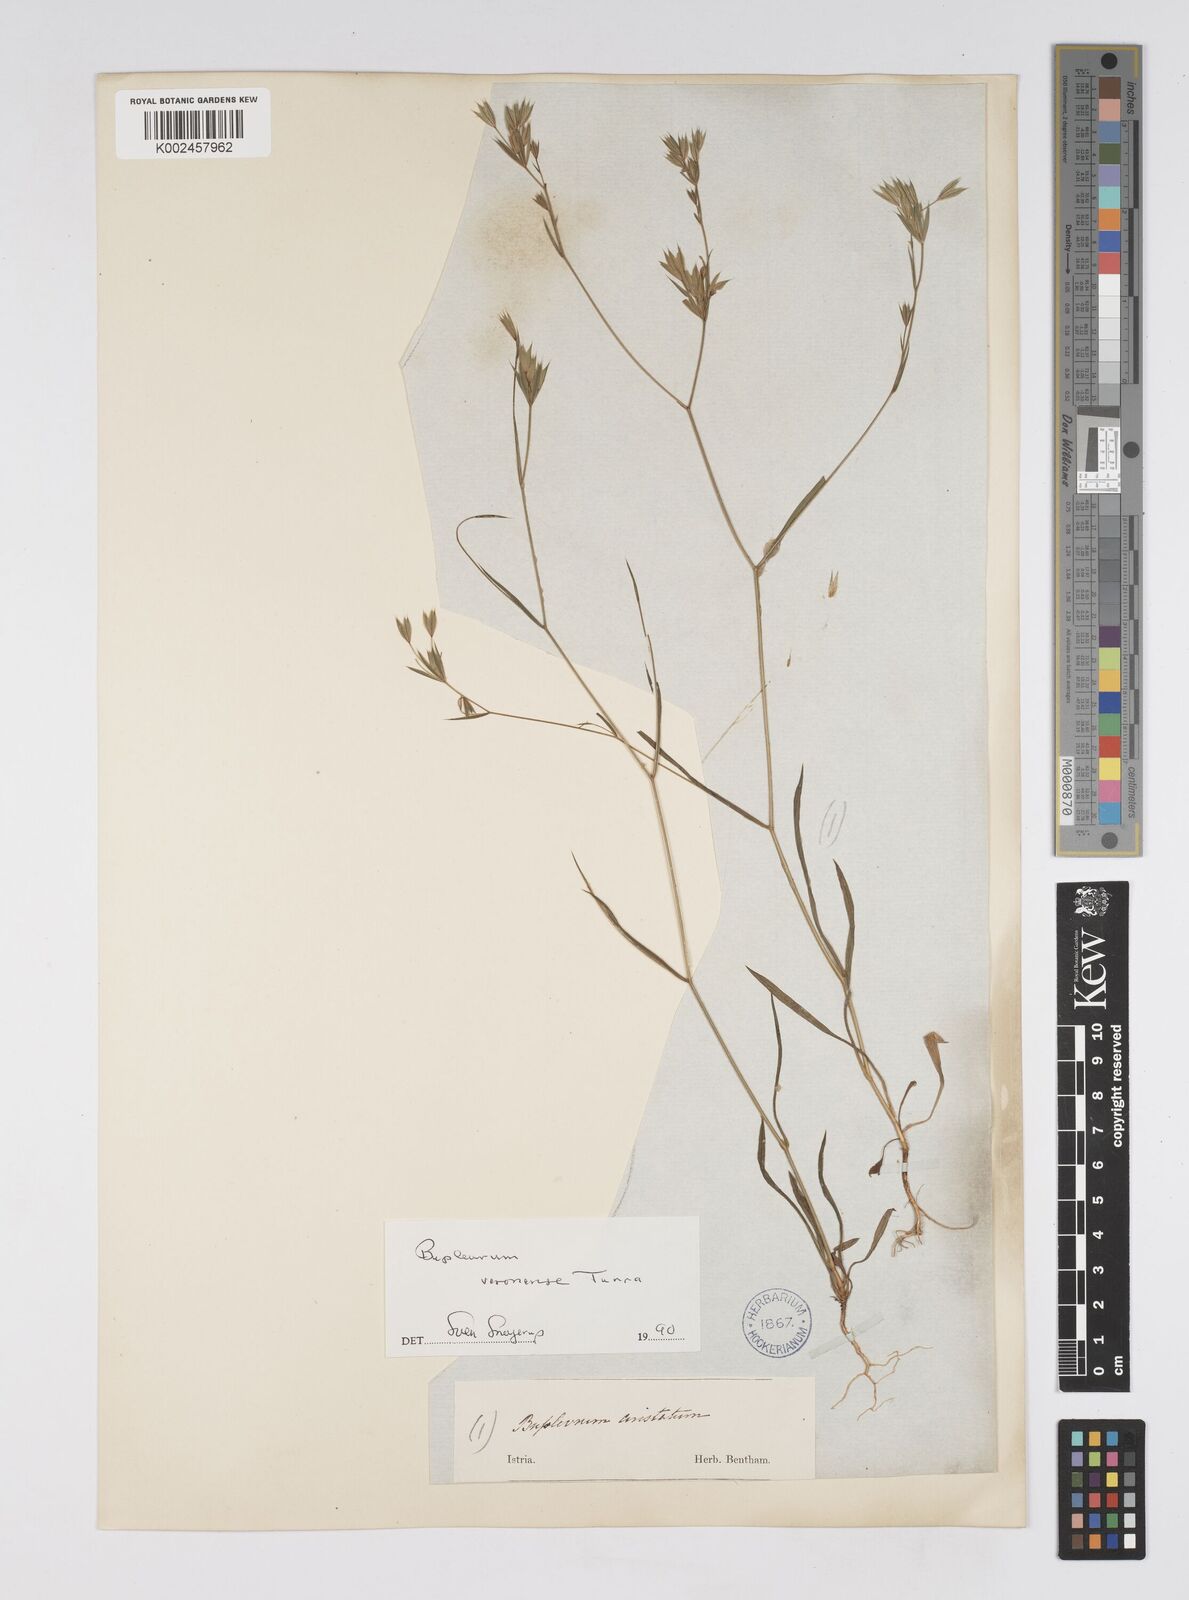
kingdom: Plantae
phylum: Tracheophyta
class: Magnoliopsida
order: Apiales
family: Apiaceae
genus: Bupleurum
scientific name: Bupleurum glumaceum
